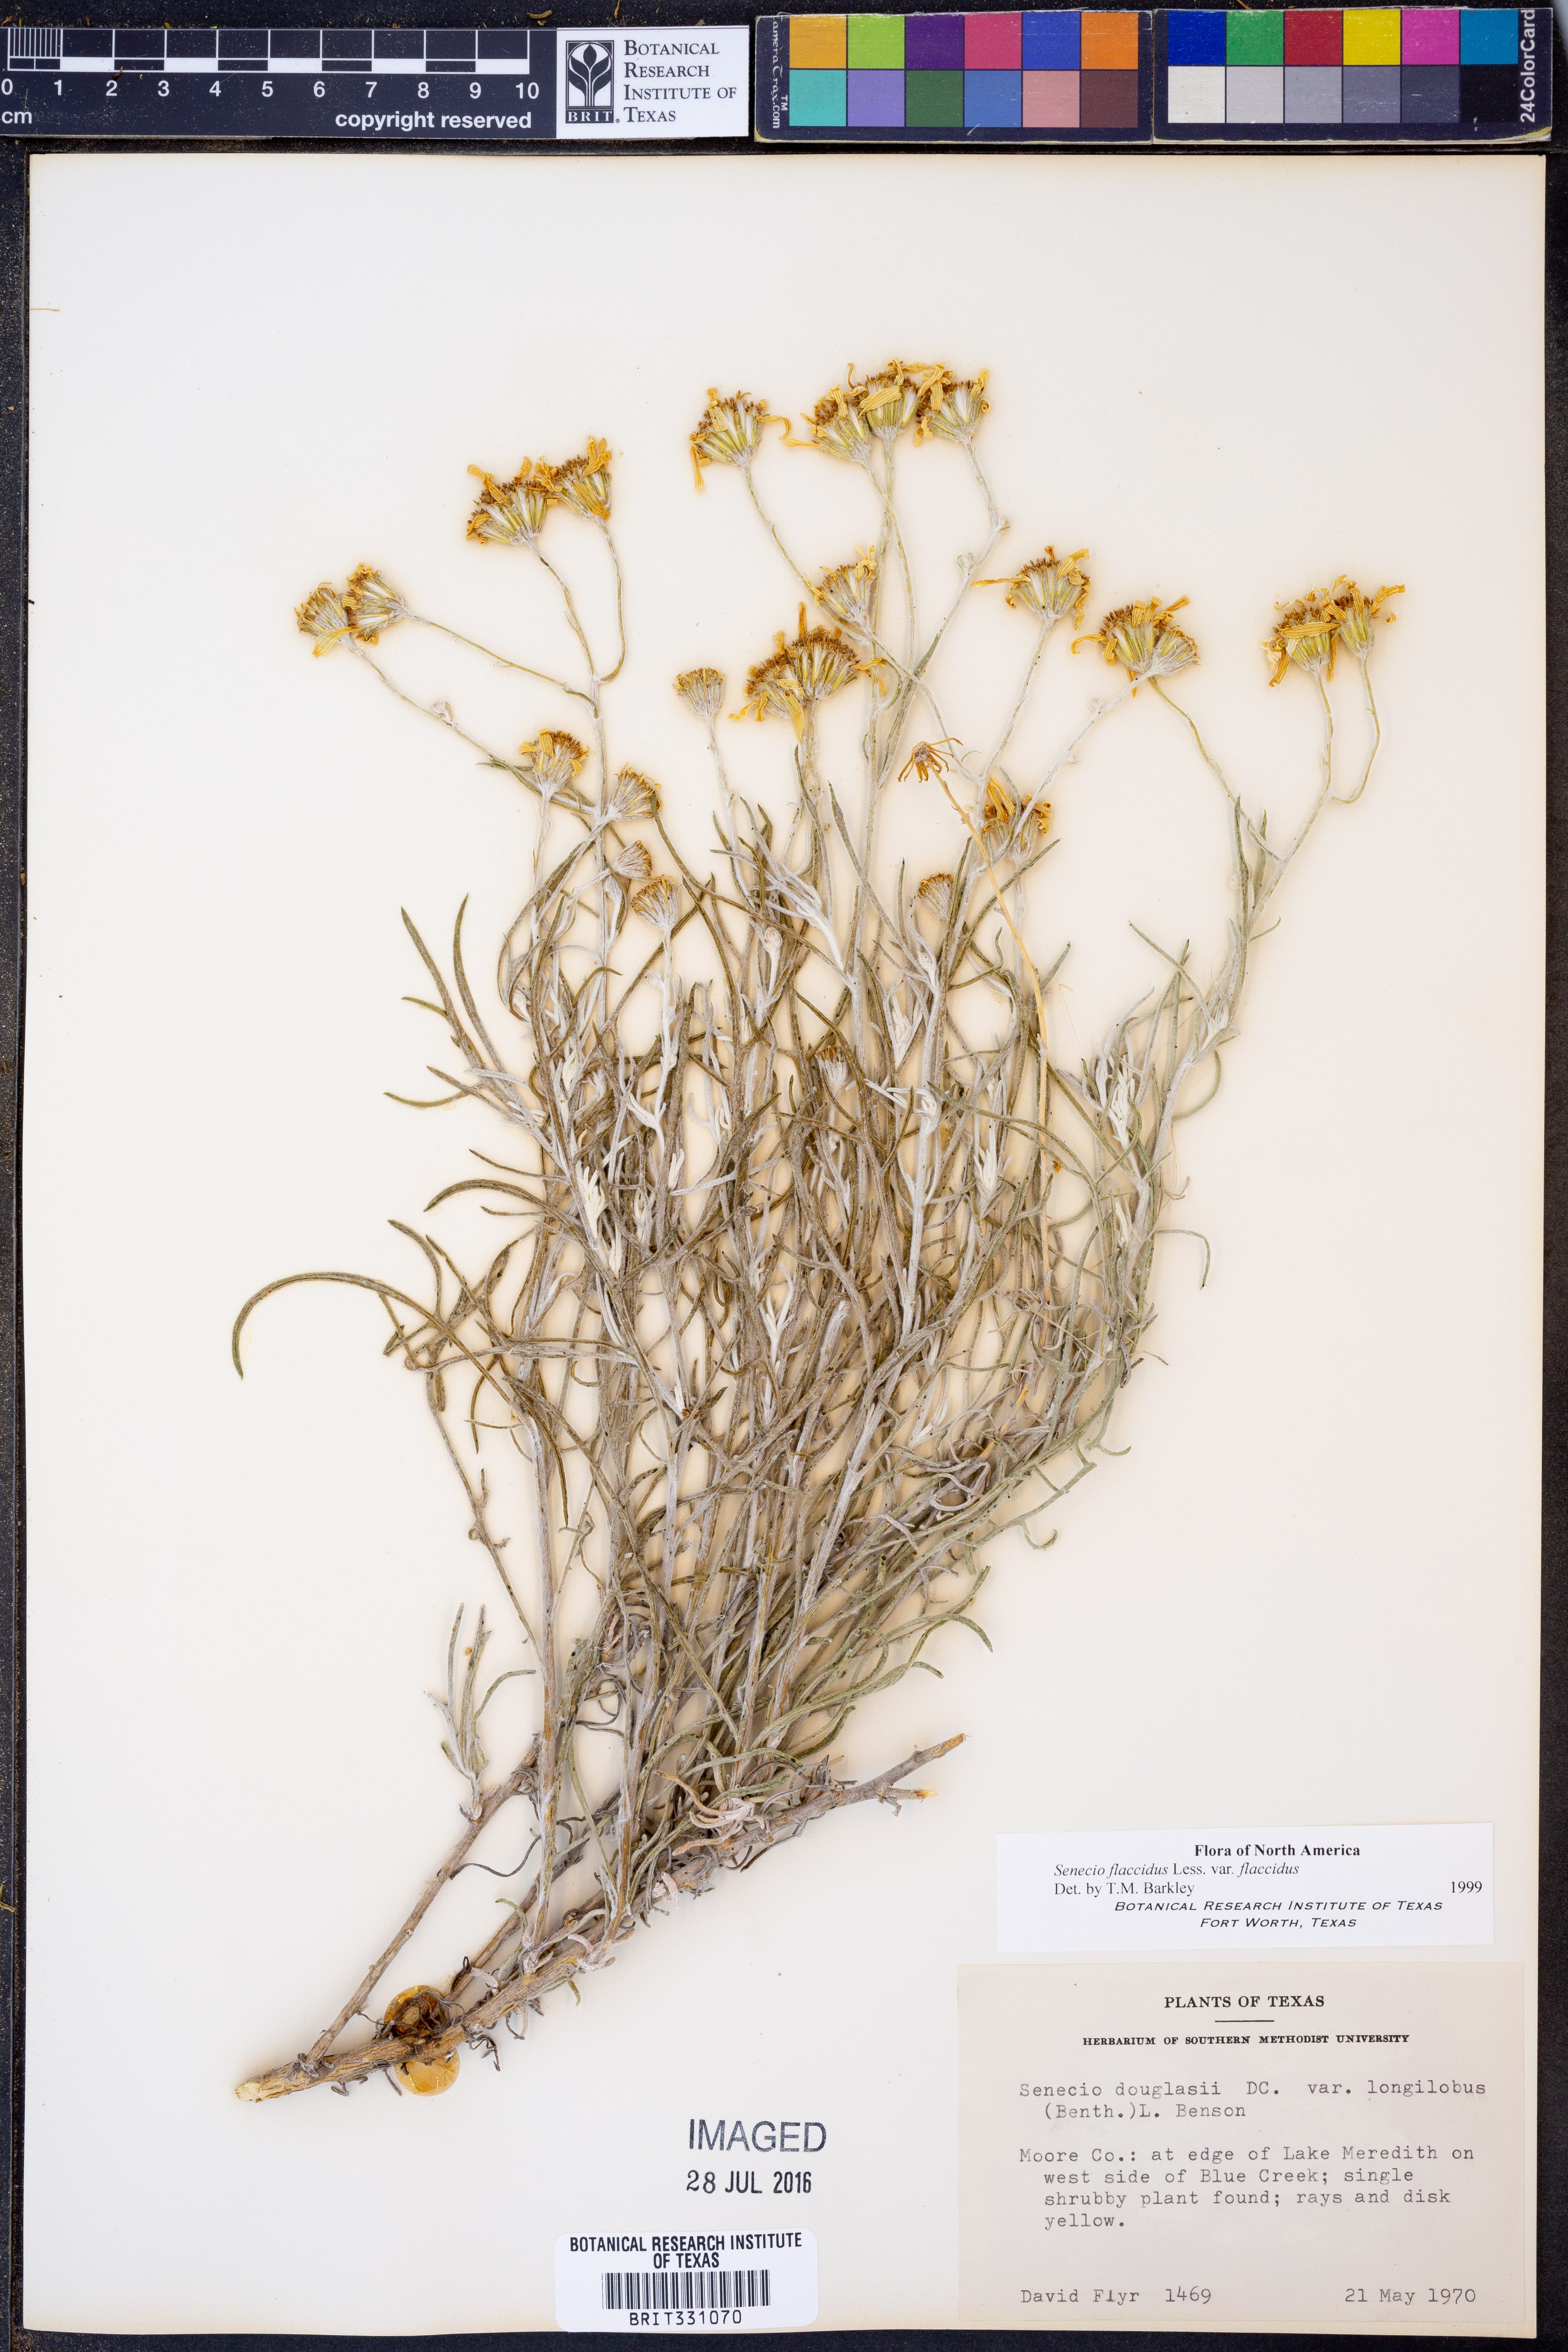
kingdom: Plantae
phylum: Tracheophyta
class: Magnoliopsida
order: Asterales
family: Asteraceae
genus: Senecio
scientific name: Senecio flaccidus
